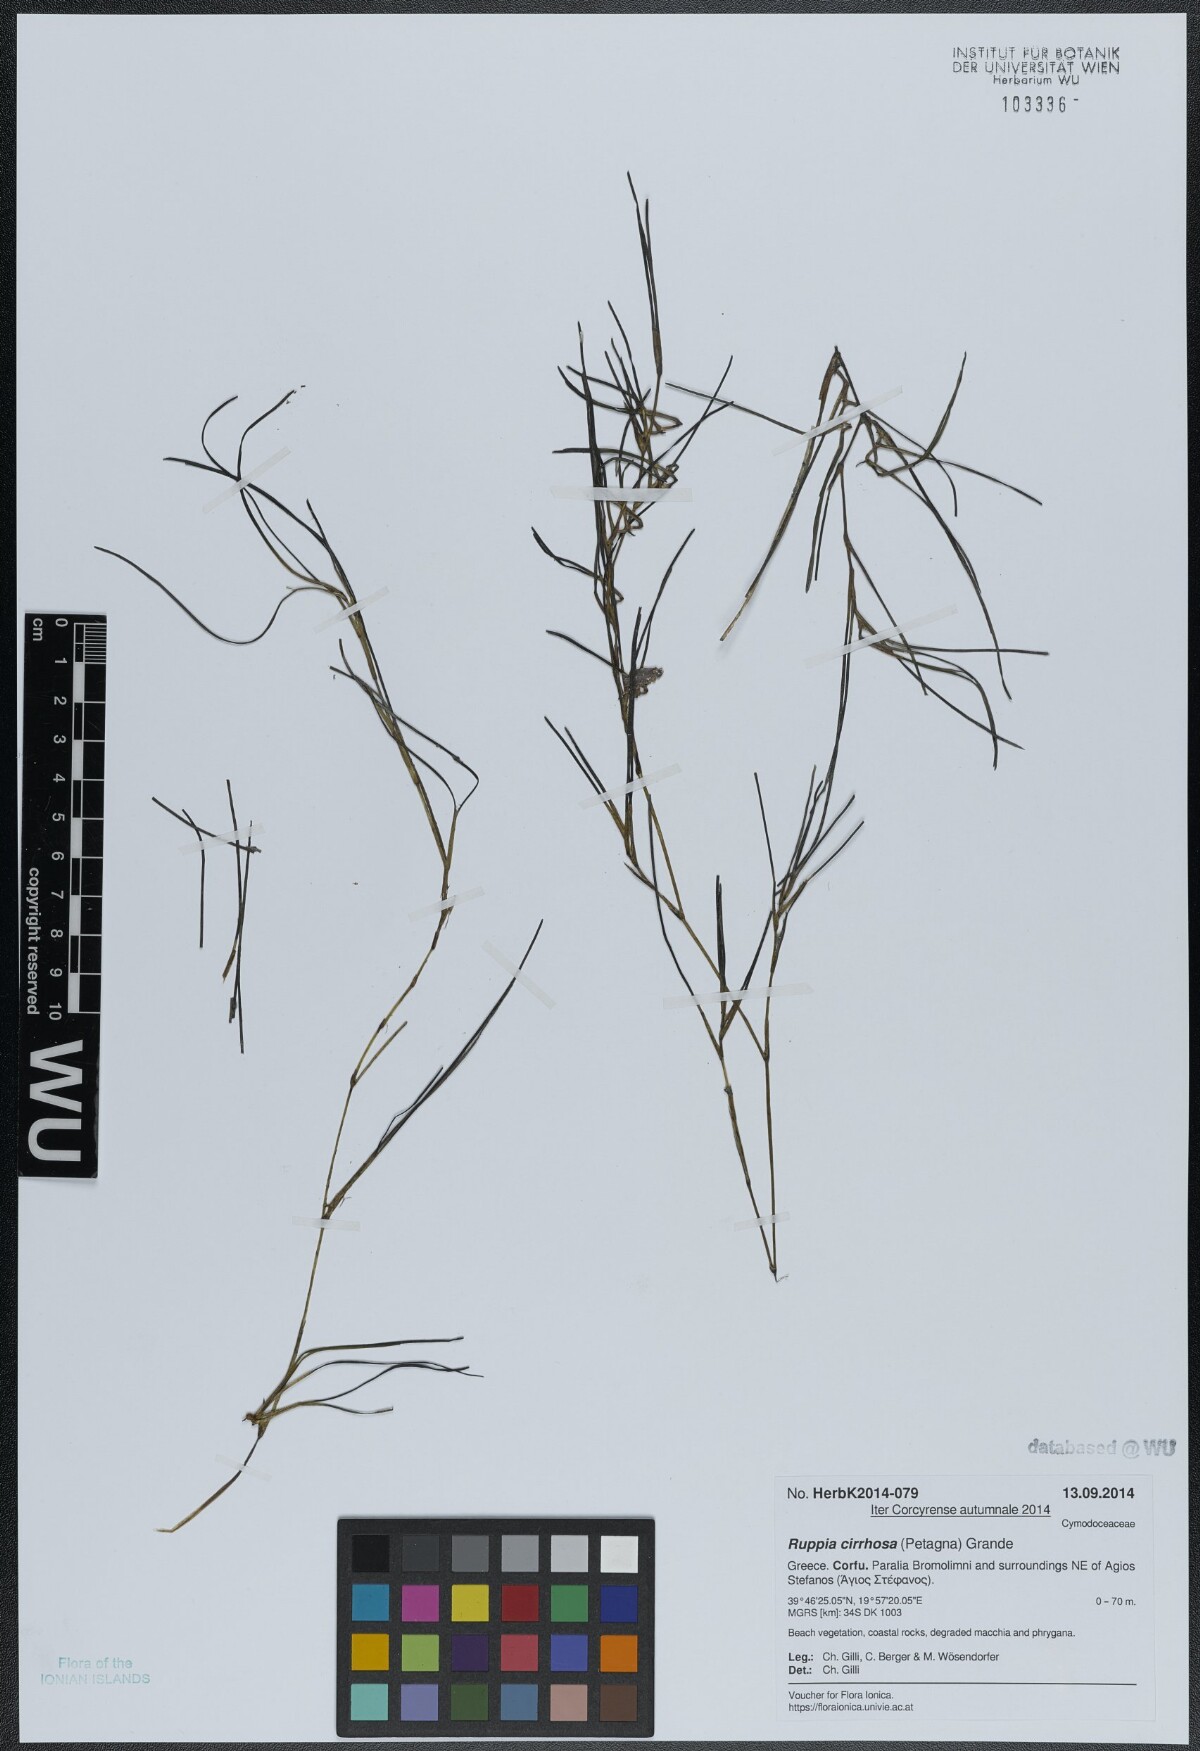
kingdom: Plantae
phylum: Tracheophyta
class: Liliopsida
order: Alismatales
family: Ruppiaceae
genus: Ruppia
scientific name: Ruppia cirrhosa
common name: Spiral tasselweed
